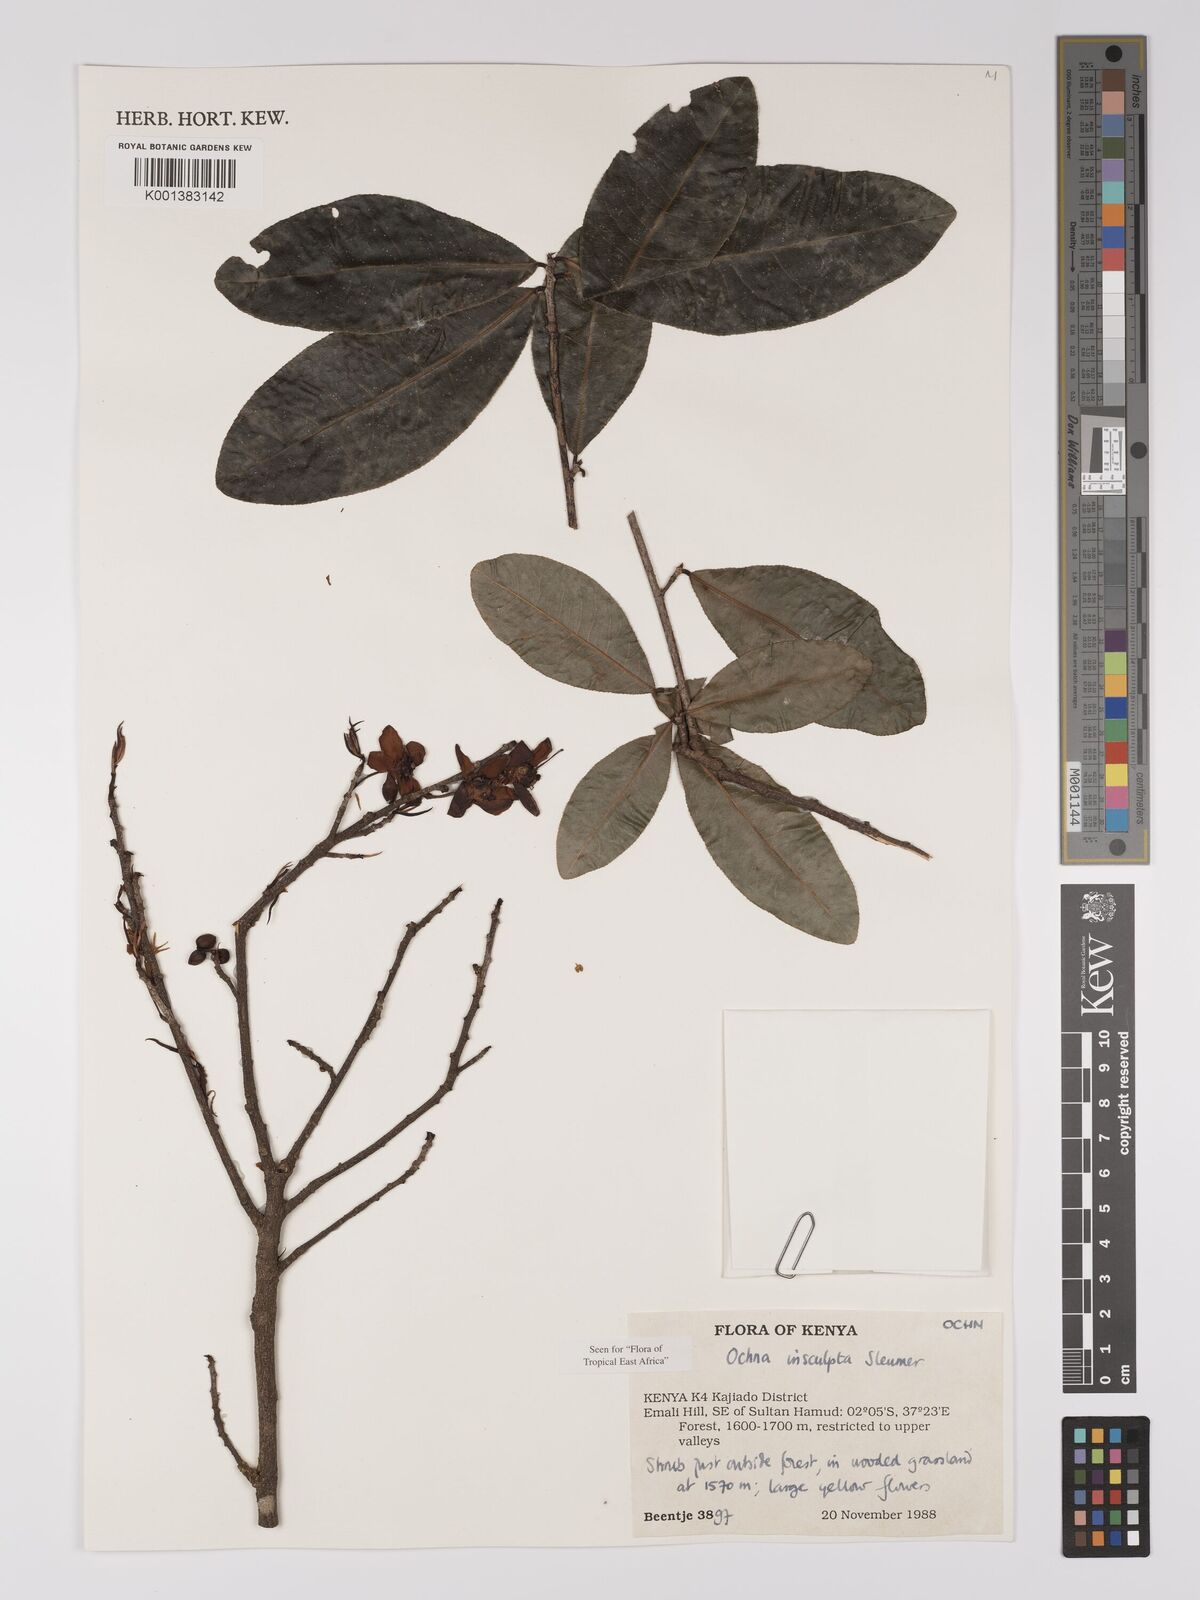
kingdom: Plantae
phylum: Tracheophyta
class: Magnoliopsida
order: Malpighiales
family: Ochnaceae
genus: Ochna
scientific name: Ochna
